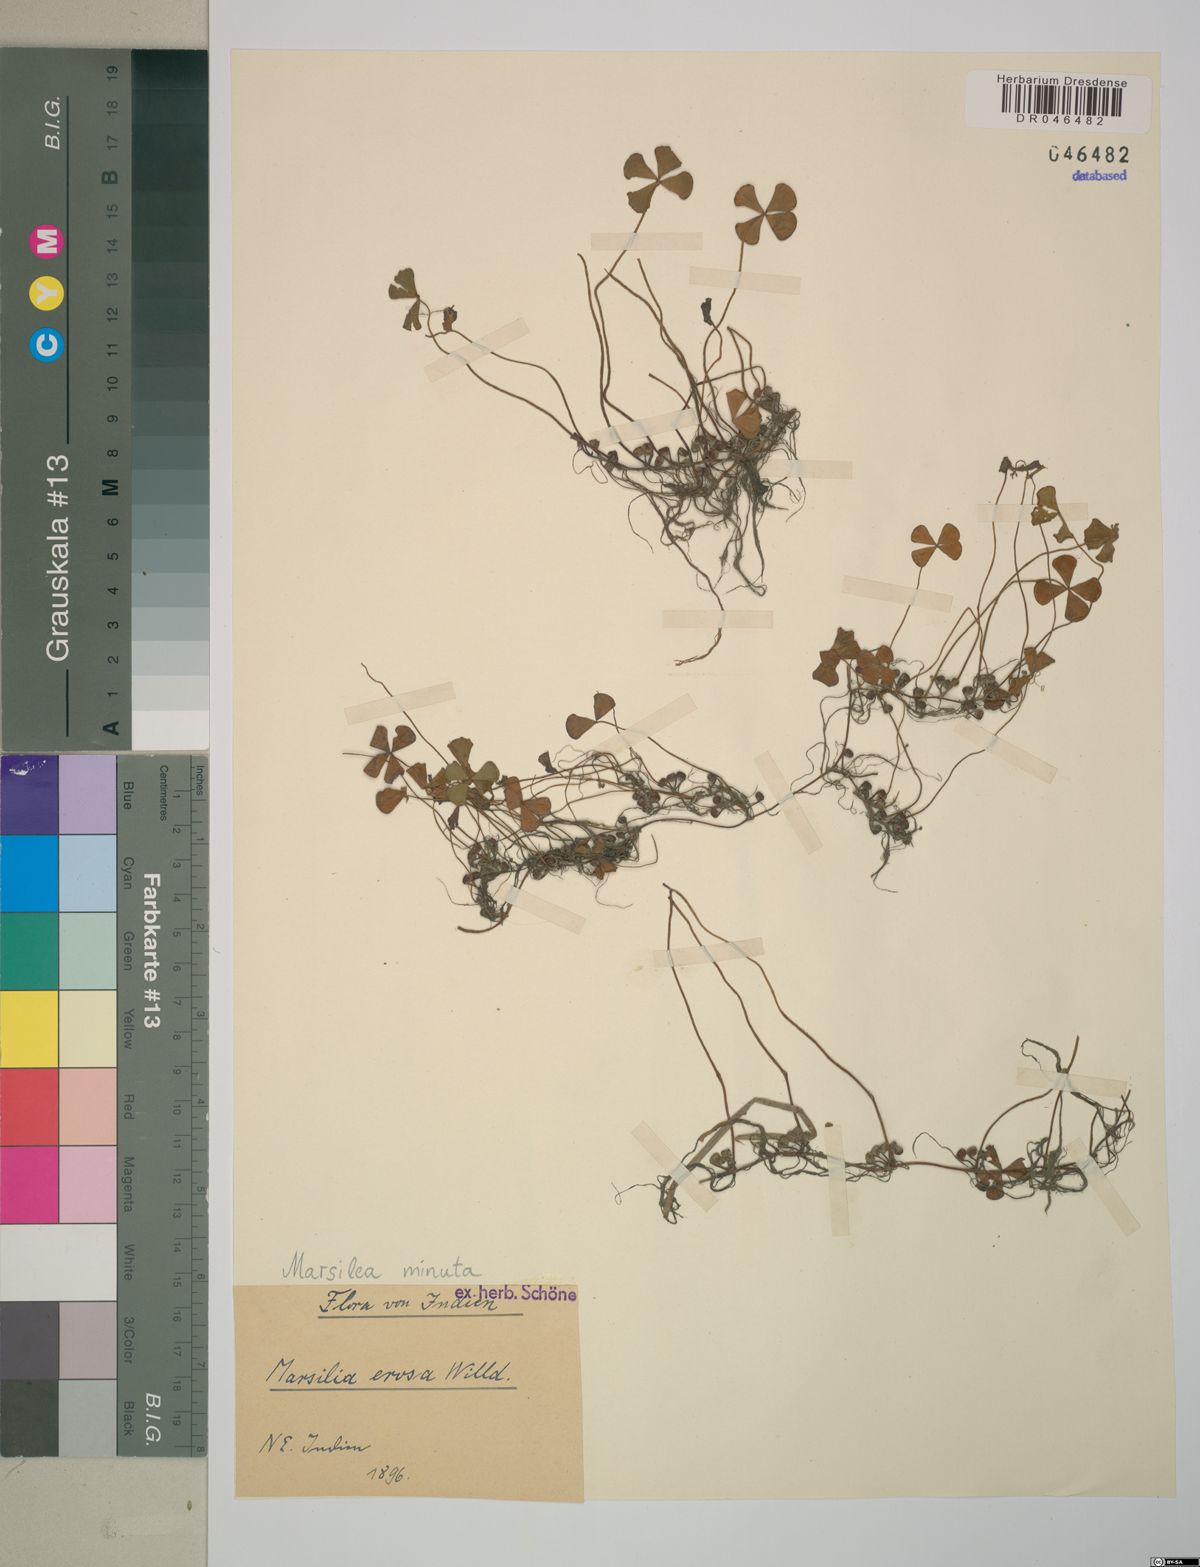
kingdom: Plantae
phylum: Tracheophyta
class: Polypodiopsida
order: Salviniales
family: Marsileaceae
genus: Marsilea
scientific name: Marsilea minuta
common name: Dwarf waterclover
